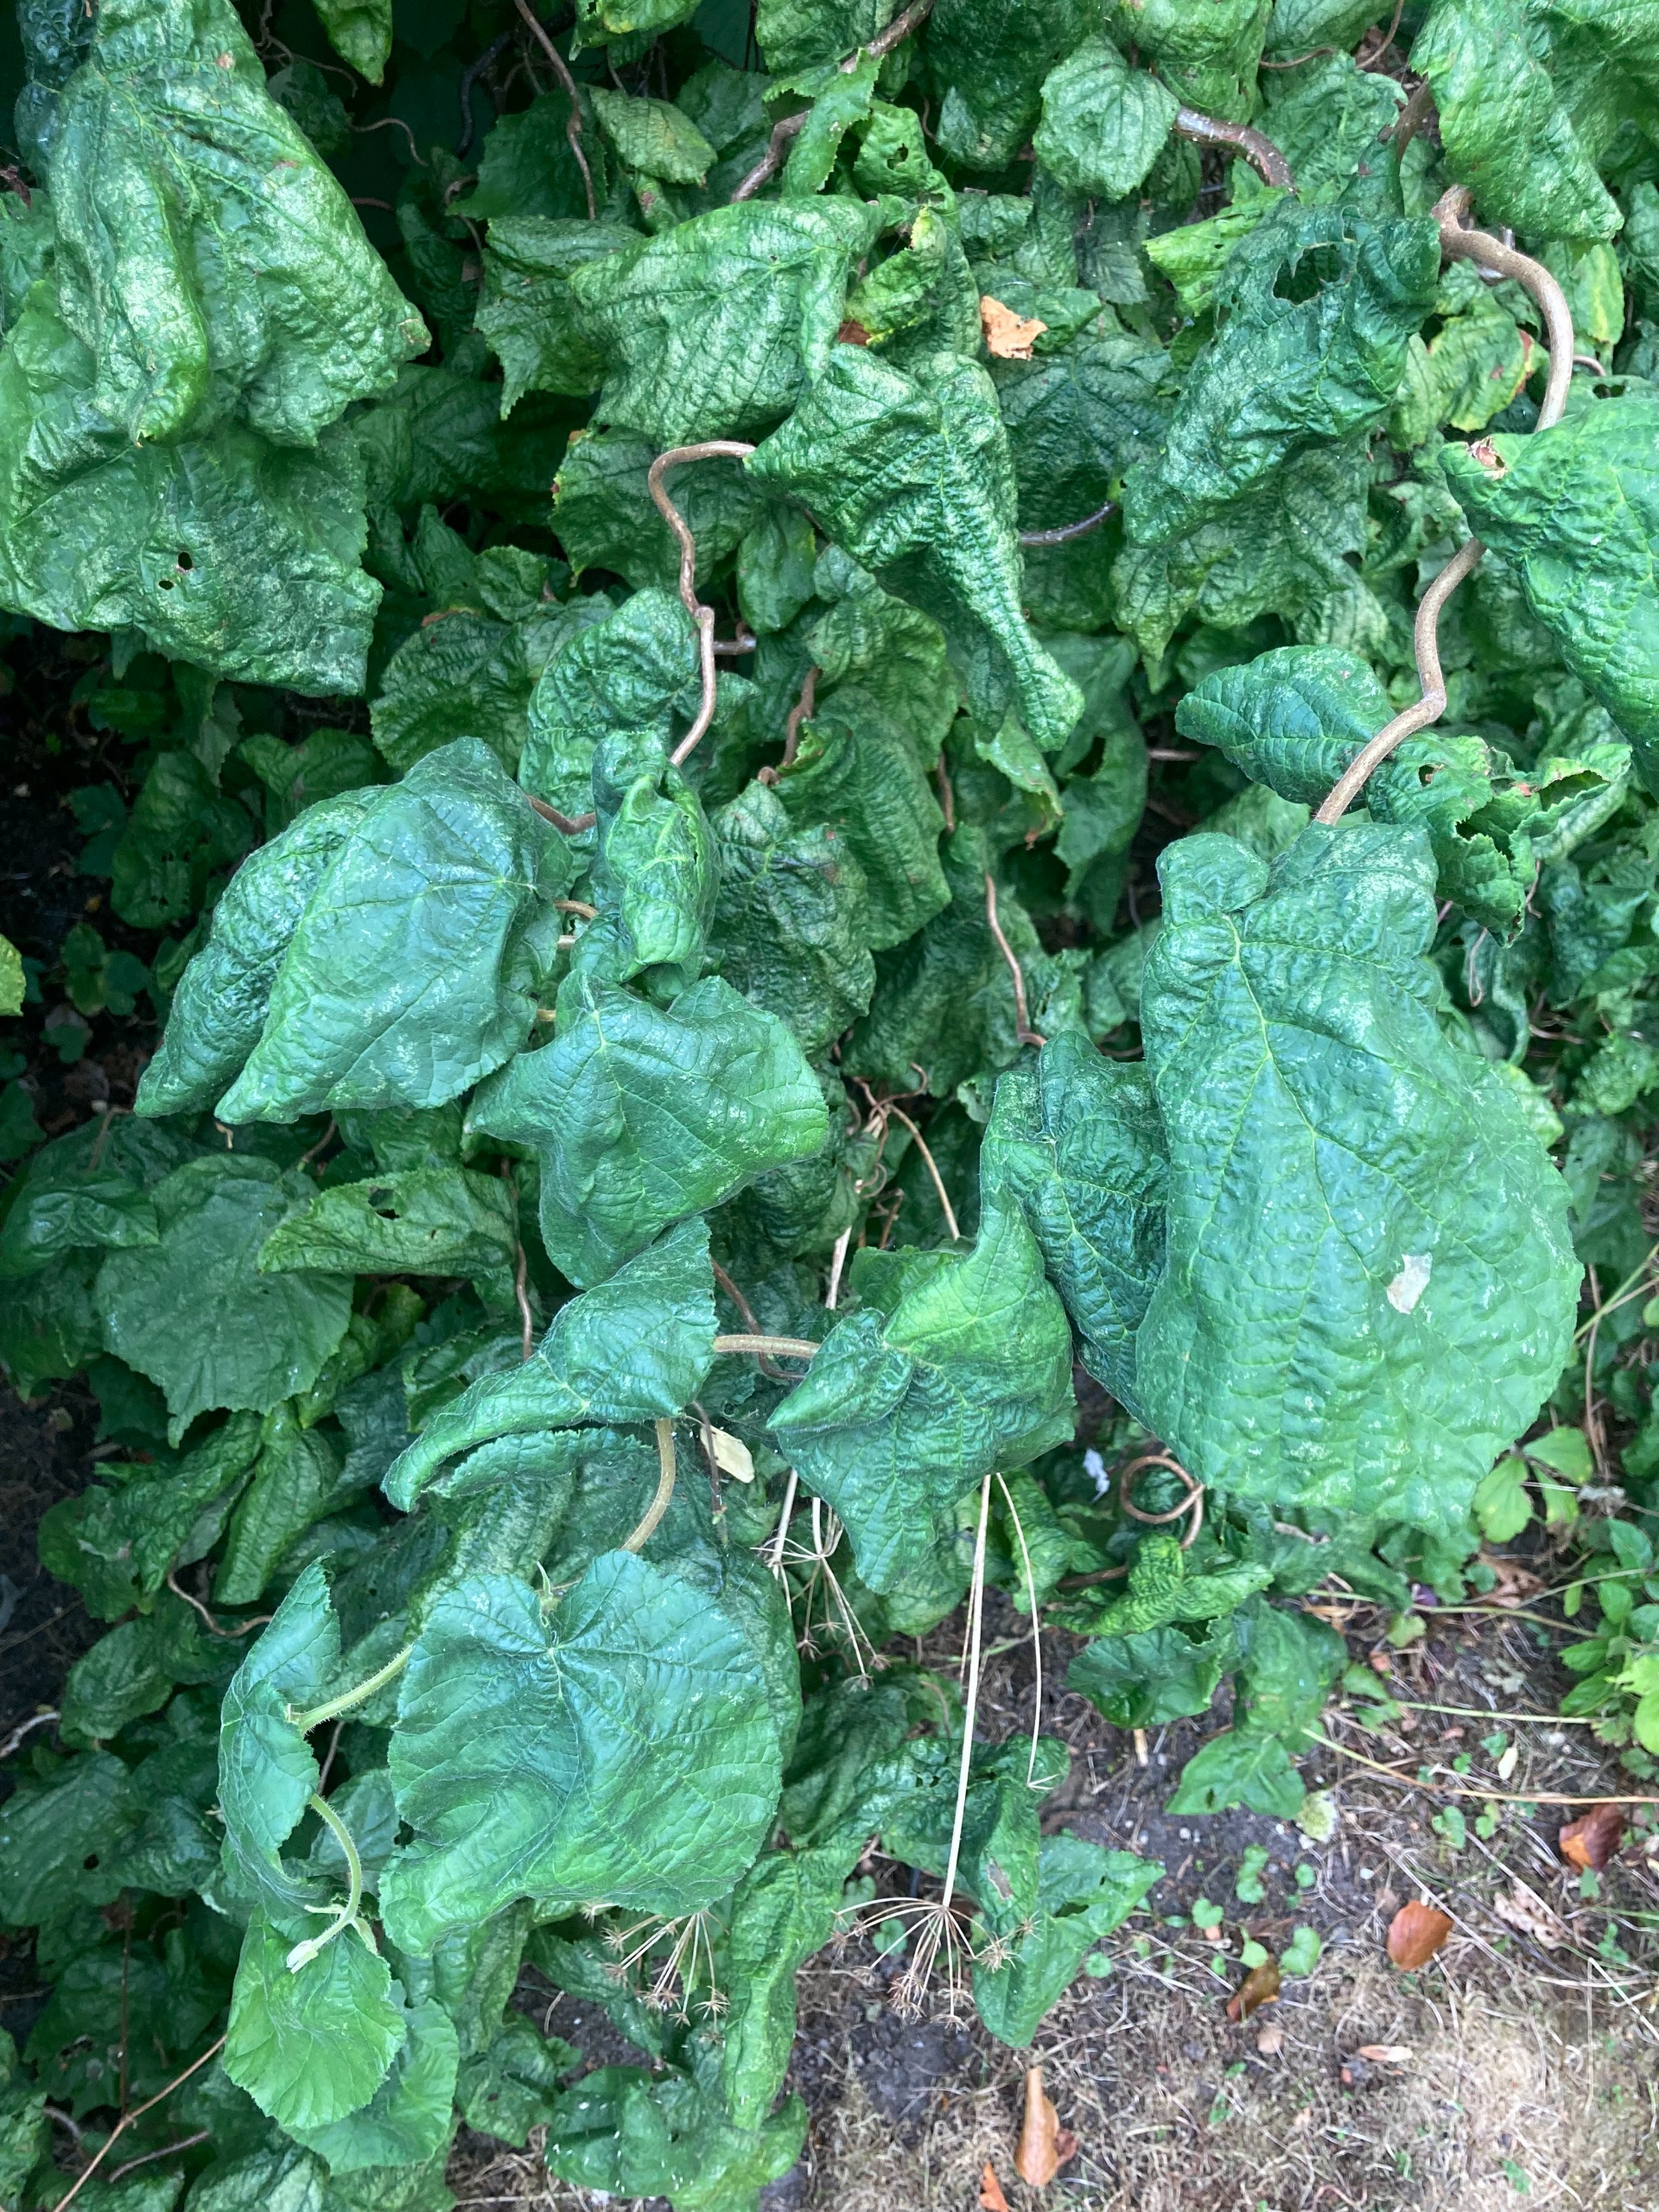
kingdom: Plantae
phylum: Tracheophyta
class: Magnoliopsida
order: Fagales
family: Betulaceae
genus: Corylus
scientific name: Corylus avellana
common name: Hassel
